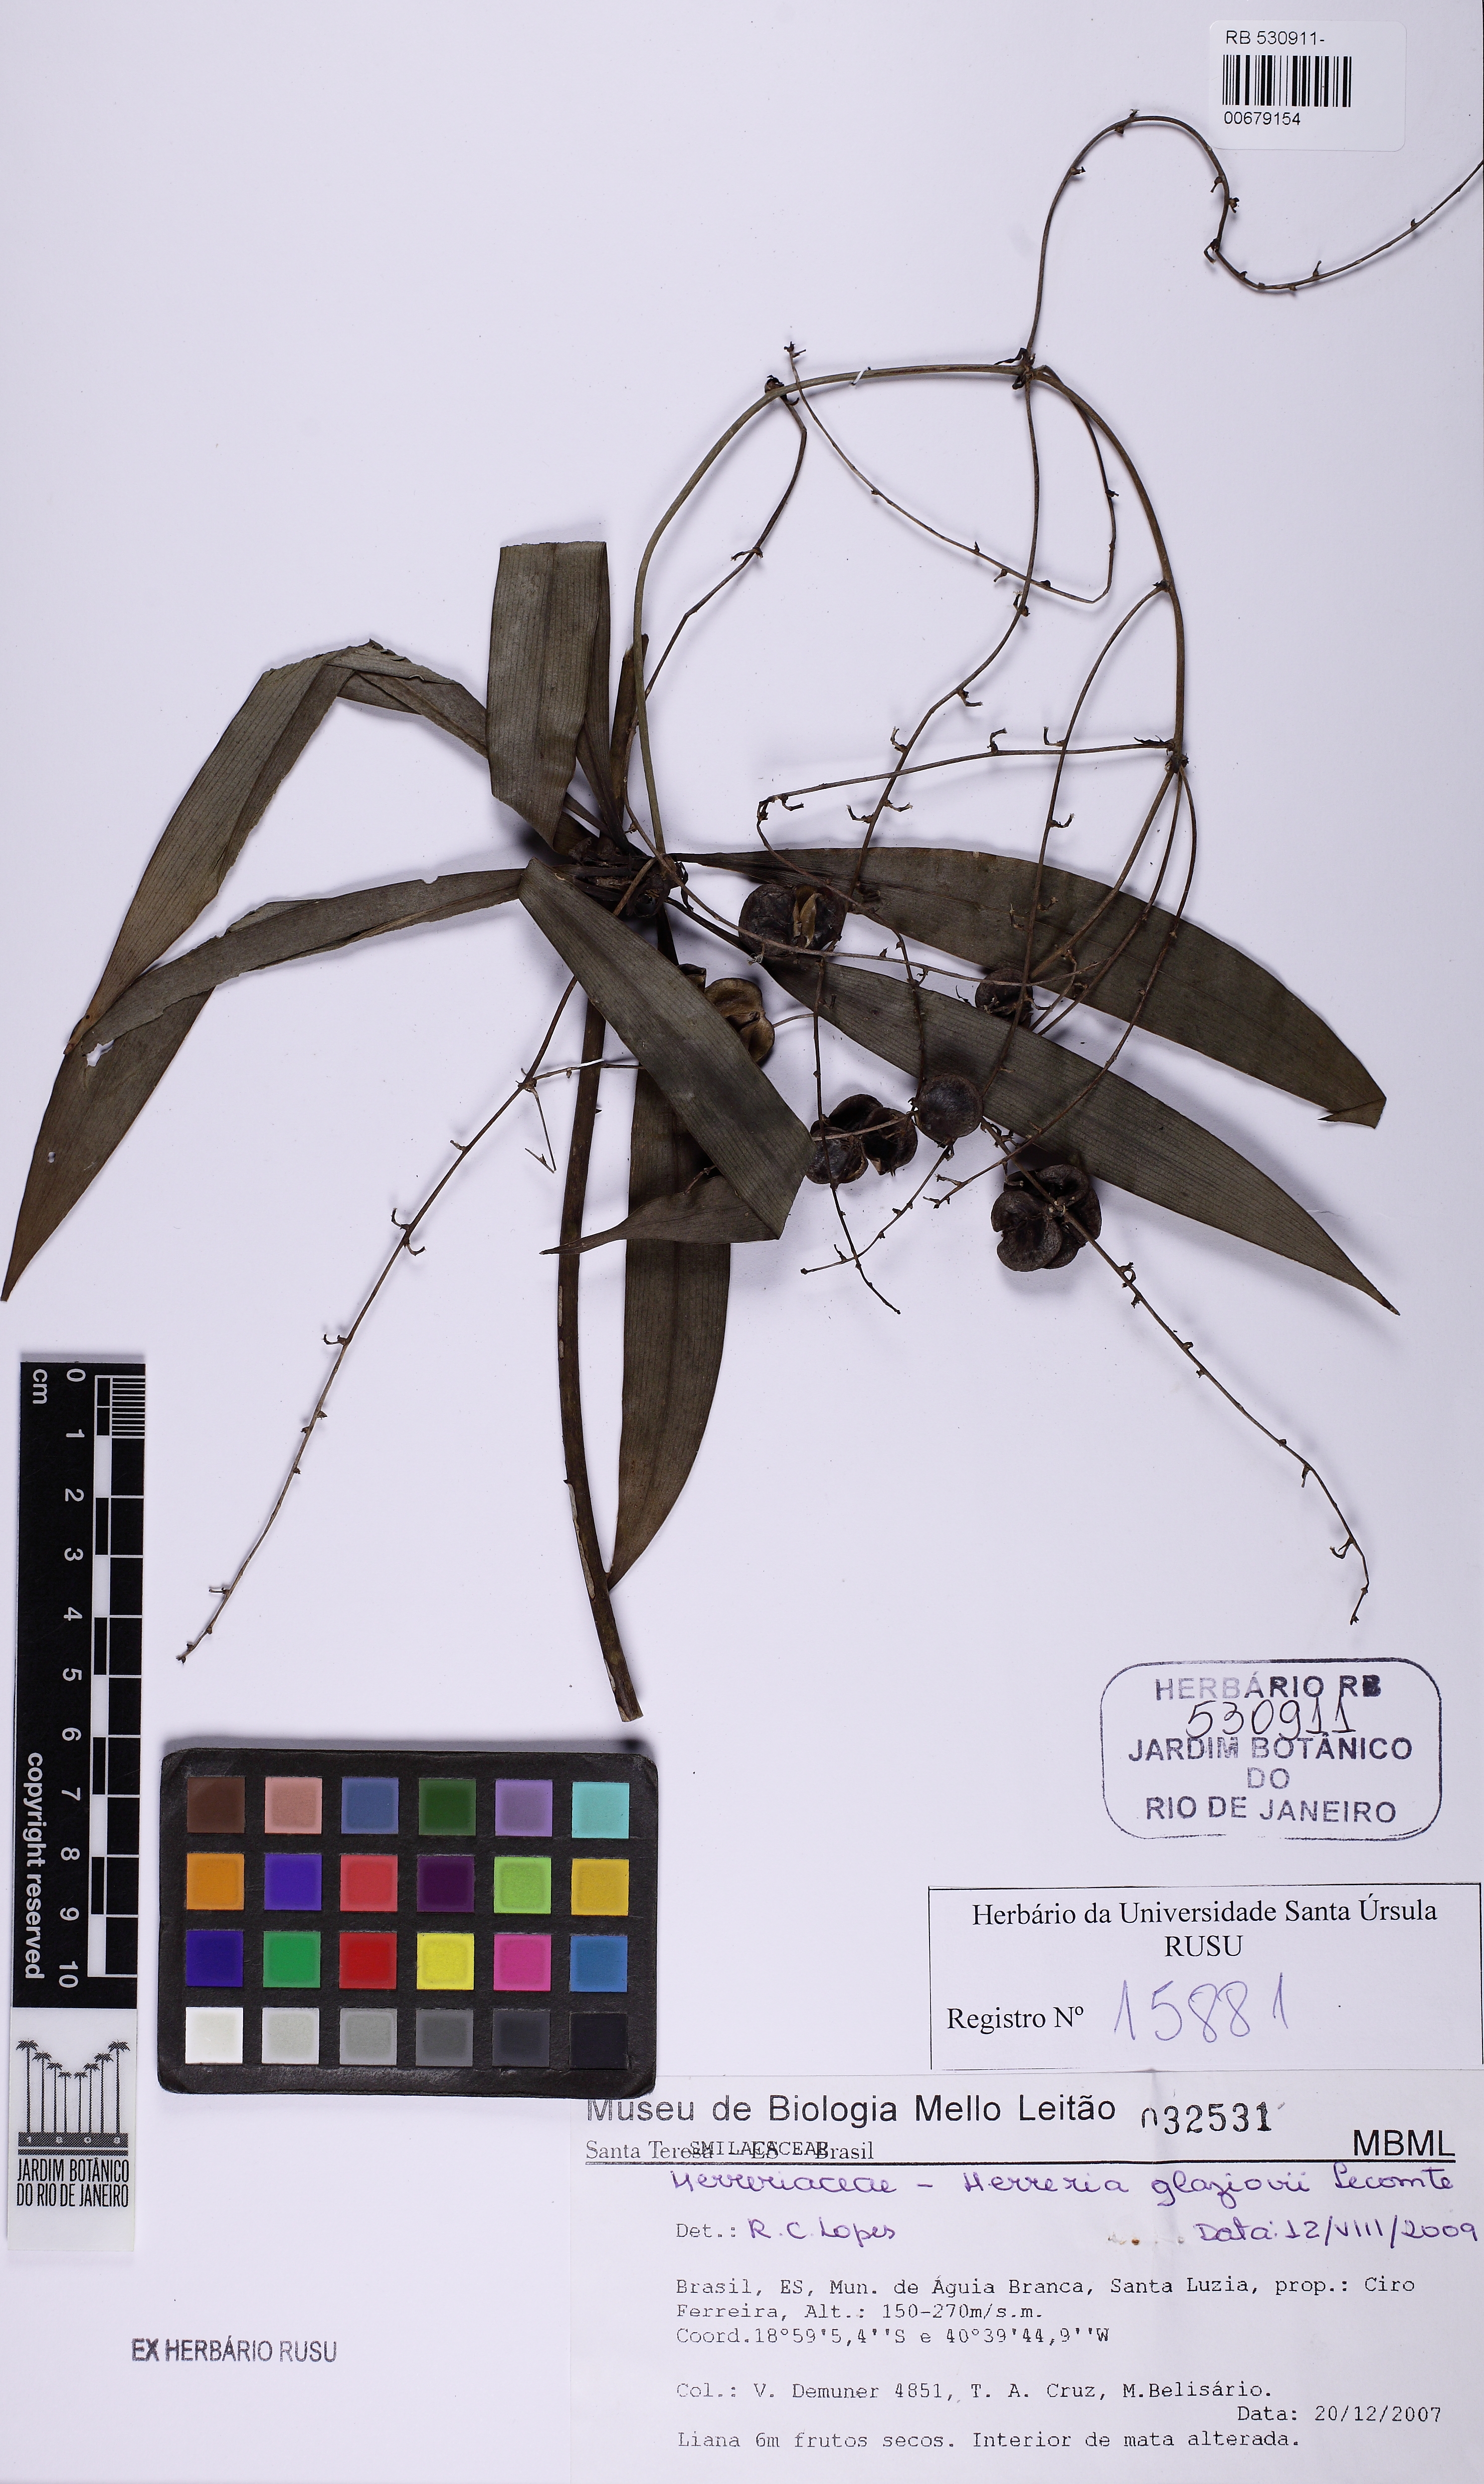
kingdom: Plantae
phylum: Tracheophyta
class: Liliopsida
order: Asparagales
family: Asparagaceae
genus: Herreria
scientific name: Herreria glaziovii
